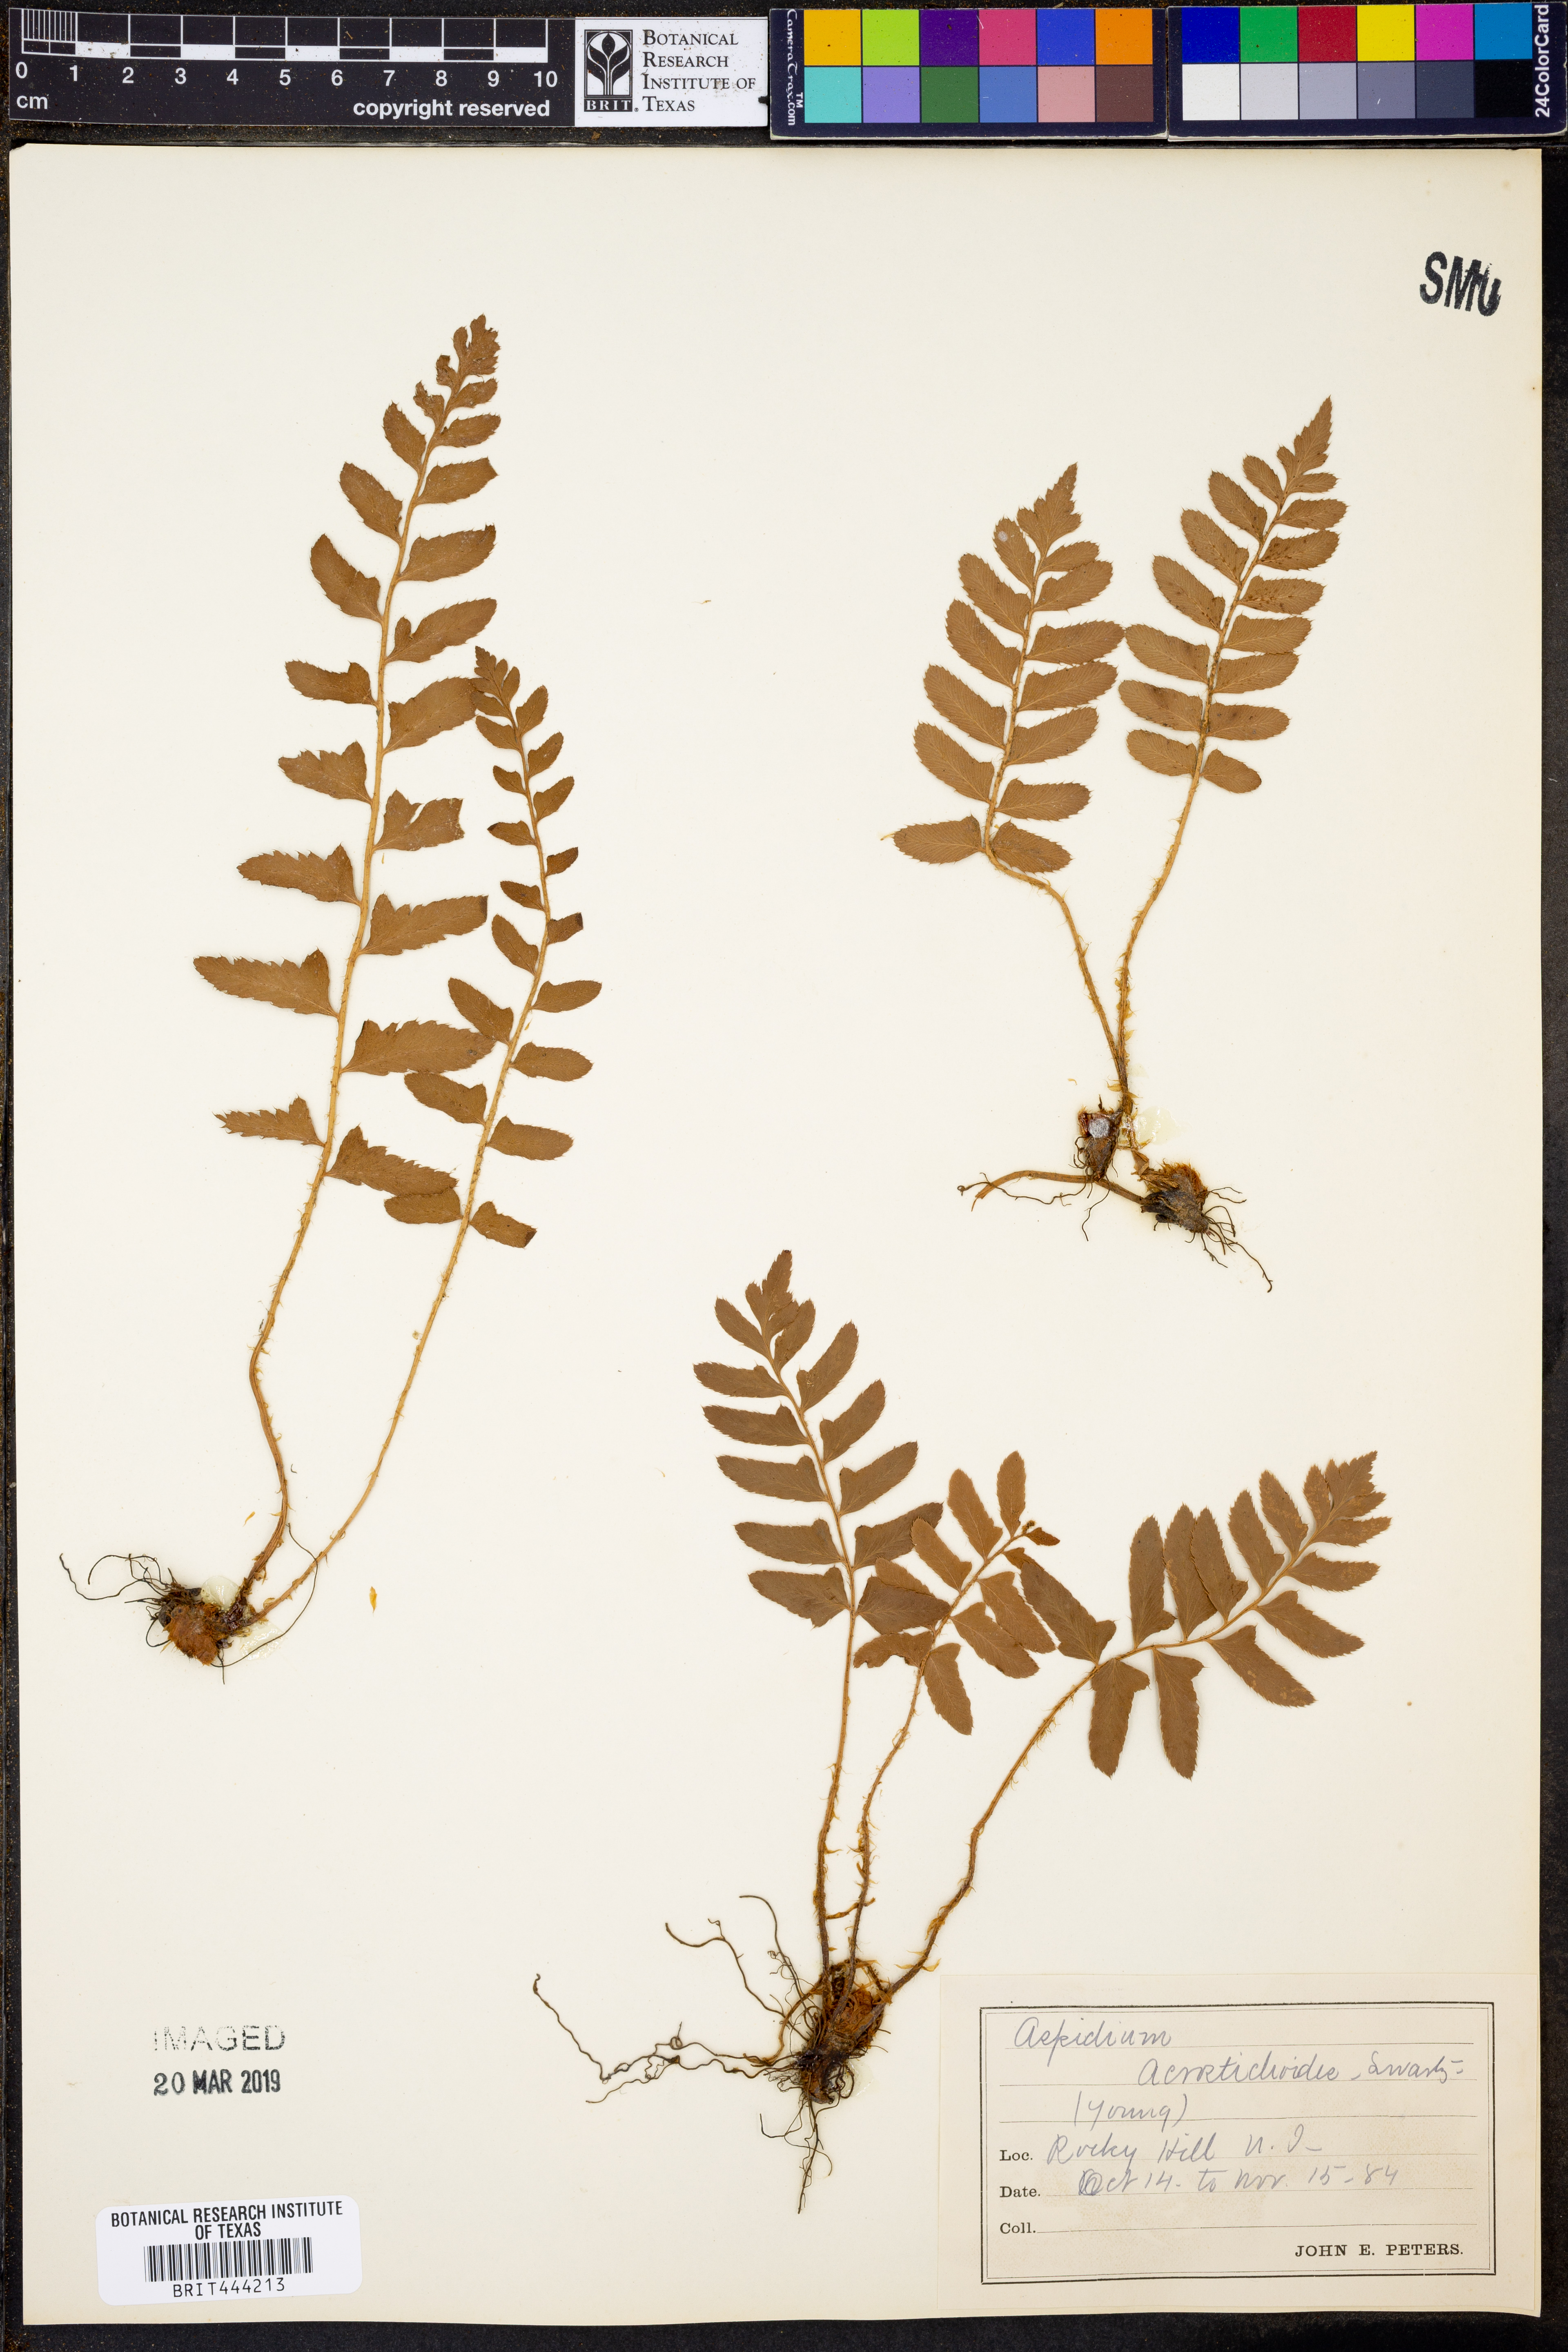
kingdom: Plantae
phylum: Tracheophyta
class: Polypodiopsida
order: Polypodiales
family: Dryopteridaceae
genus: Polystichum
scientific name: Polystichum acrostichoides
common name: Christmas fern
